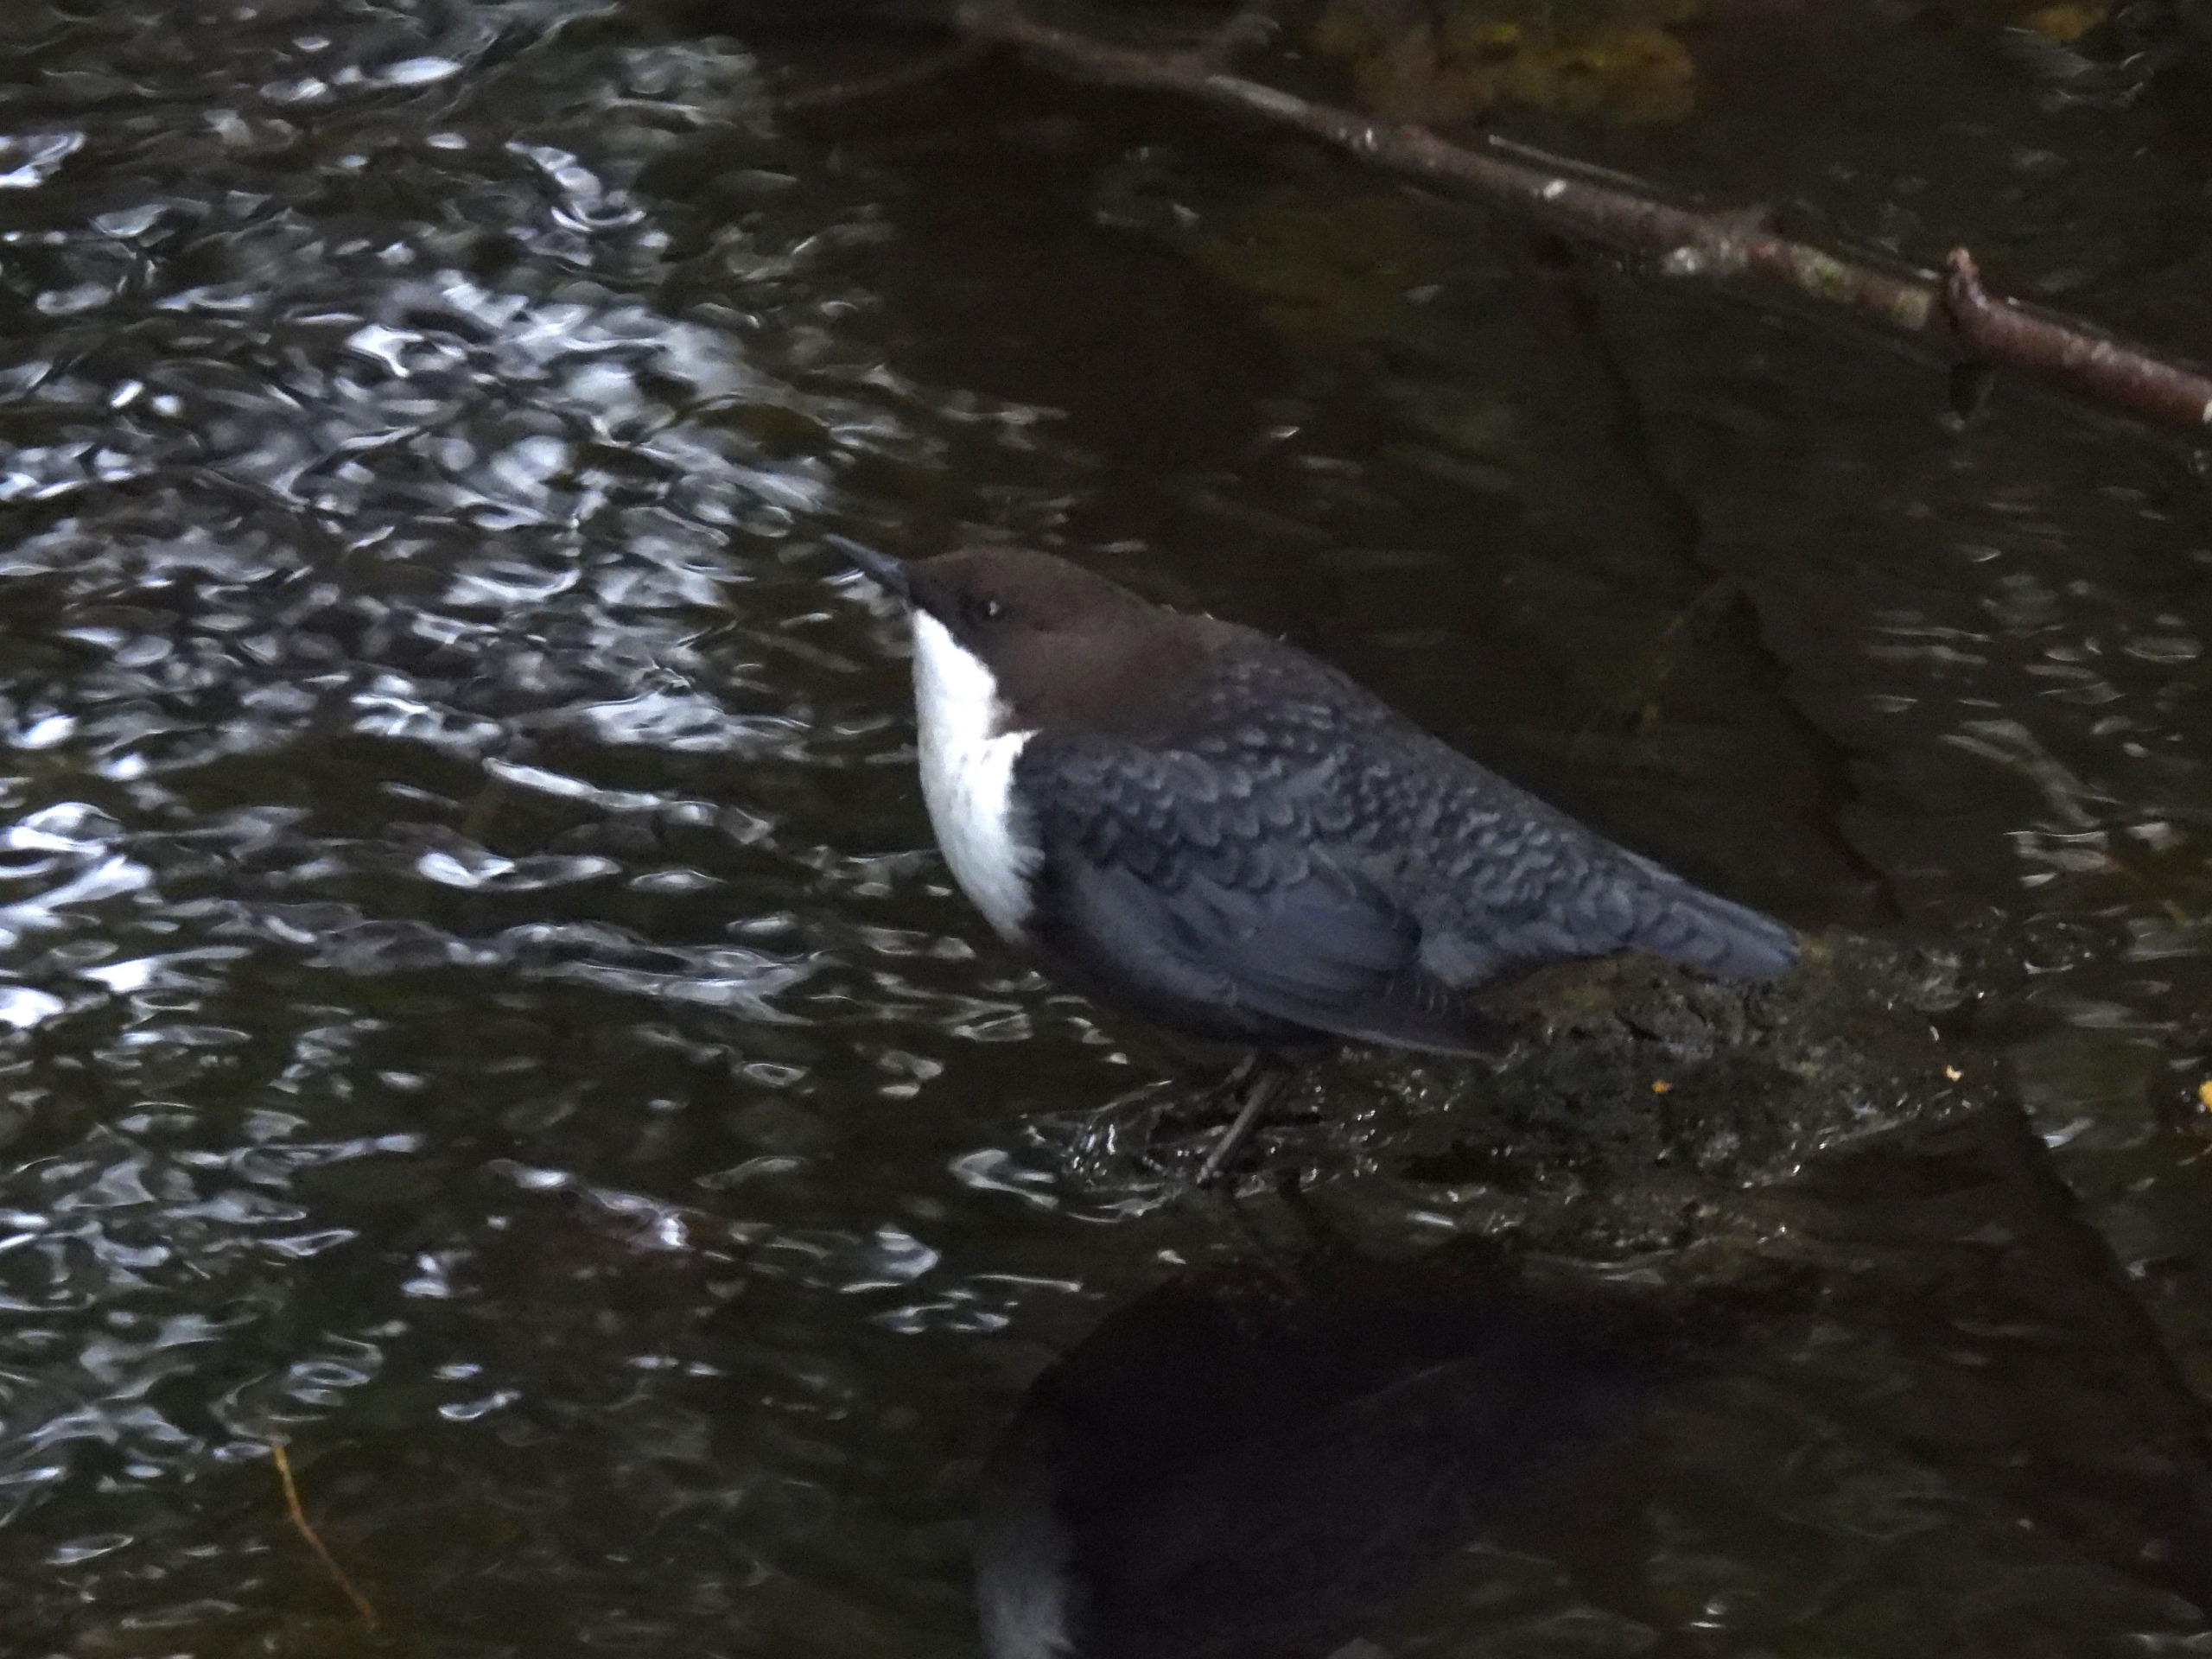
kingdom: Animalia
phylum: Chordata
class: Aves
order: Passeriformes
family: Cinclidae
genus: Cinclus
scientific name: Cinclus cinclus
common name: Vandstær
